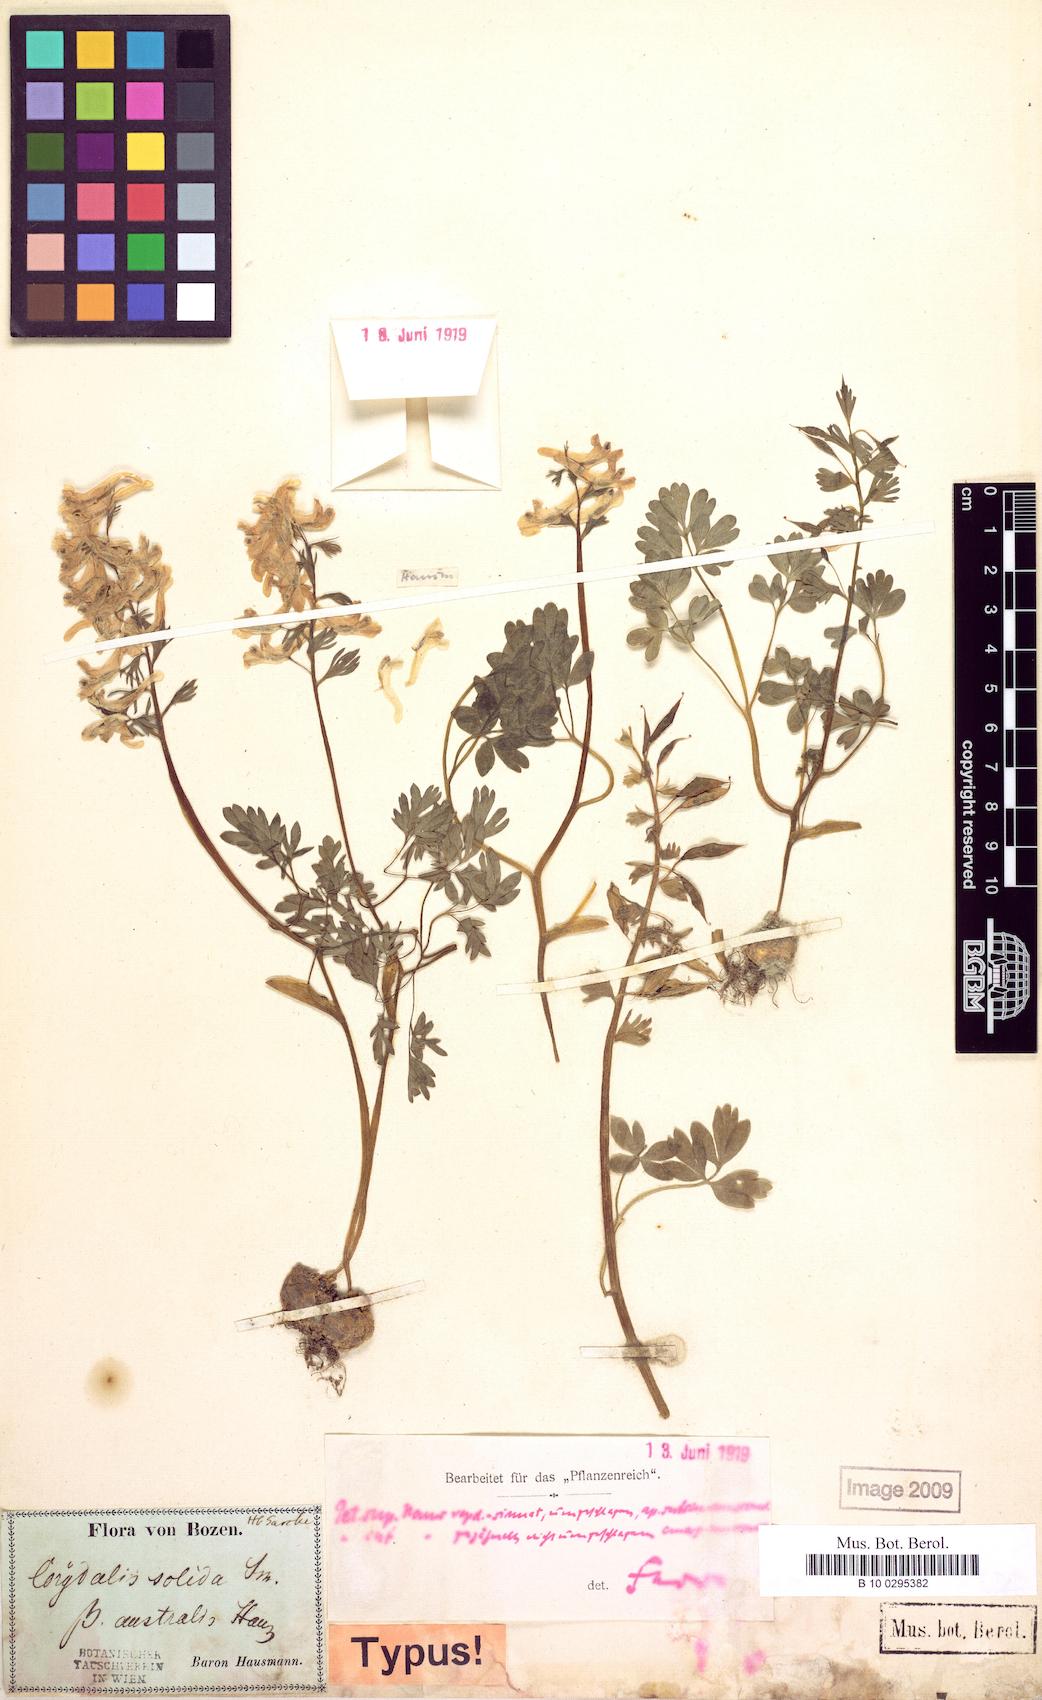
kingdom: Plantae
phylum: Tracheophyta
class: Magnoliopsida
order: Ranunculales
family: Papaveraceae
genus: Corydalis
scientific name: Corydalis solida
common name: Bird-in-a-bush
